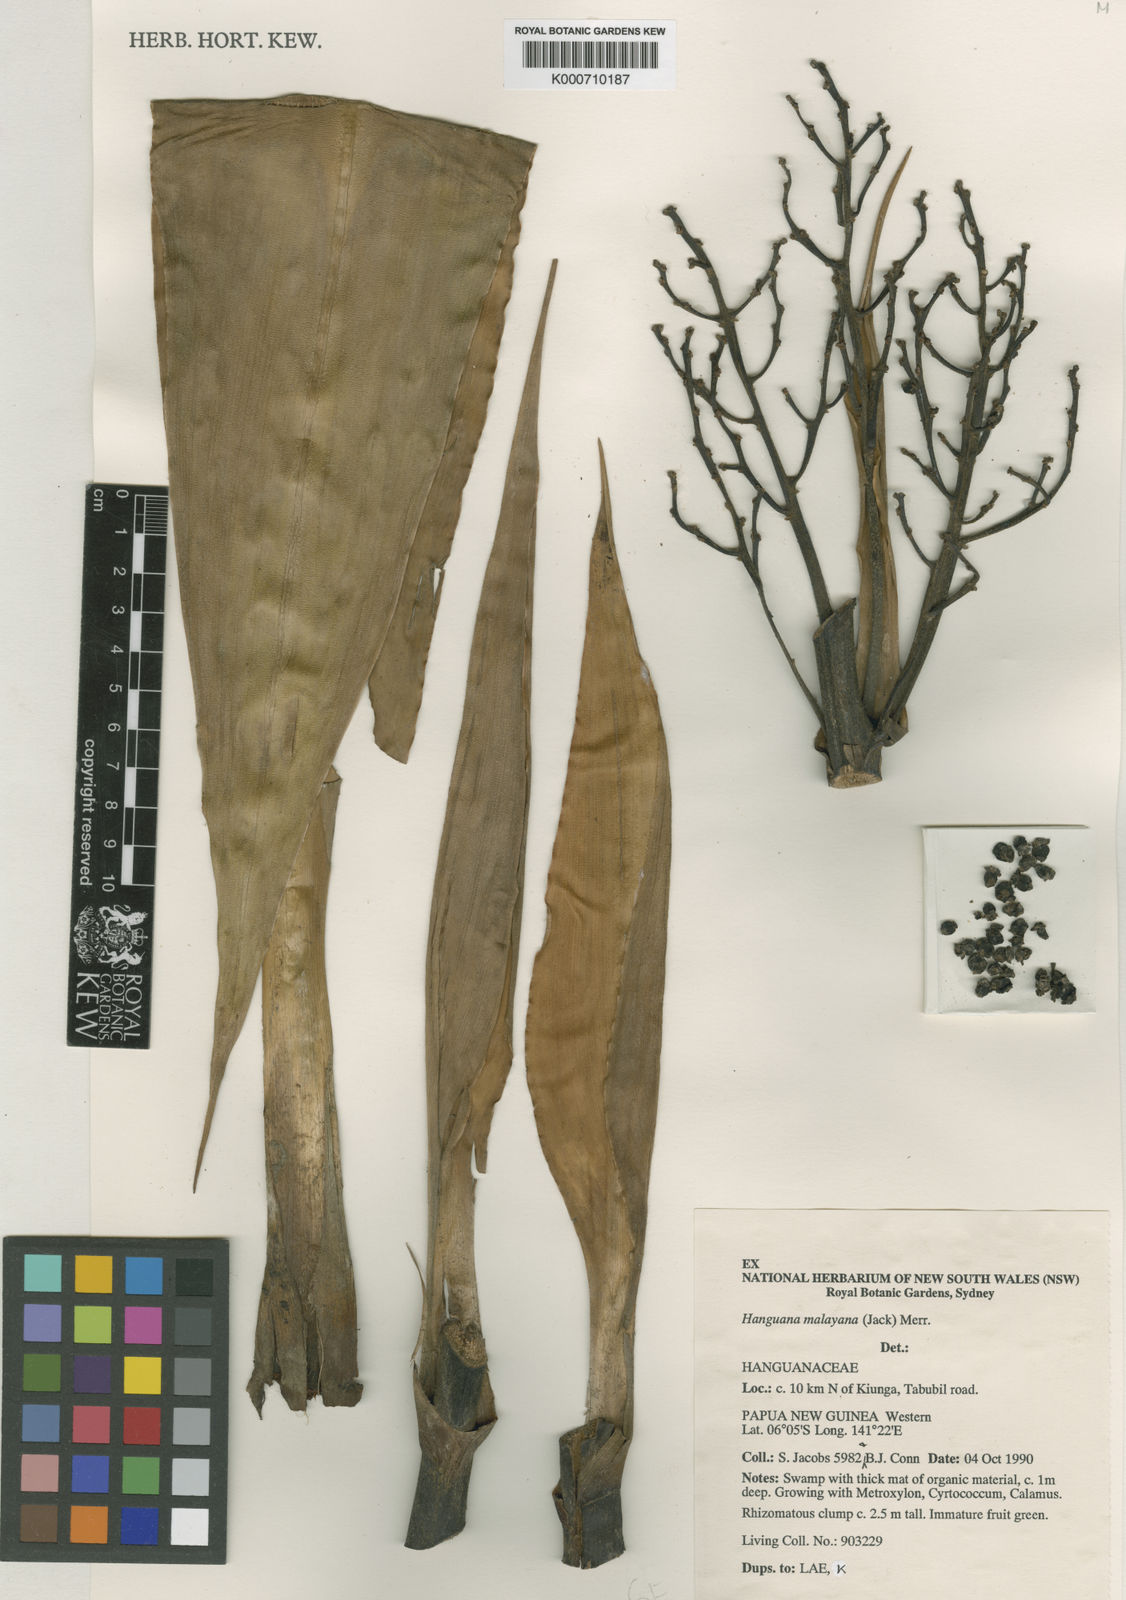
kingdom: Plantae
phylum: Tracheophyta
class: Liliopsida
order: Commelinales
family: Hanguanaceae
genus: Hanguana
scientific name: Hanguana malayana
